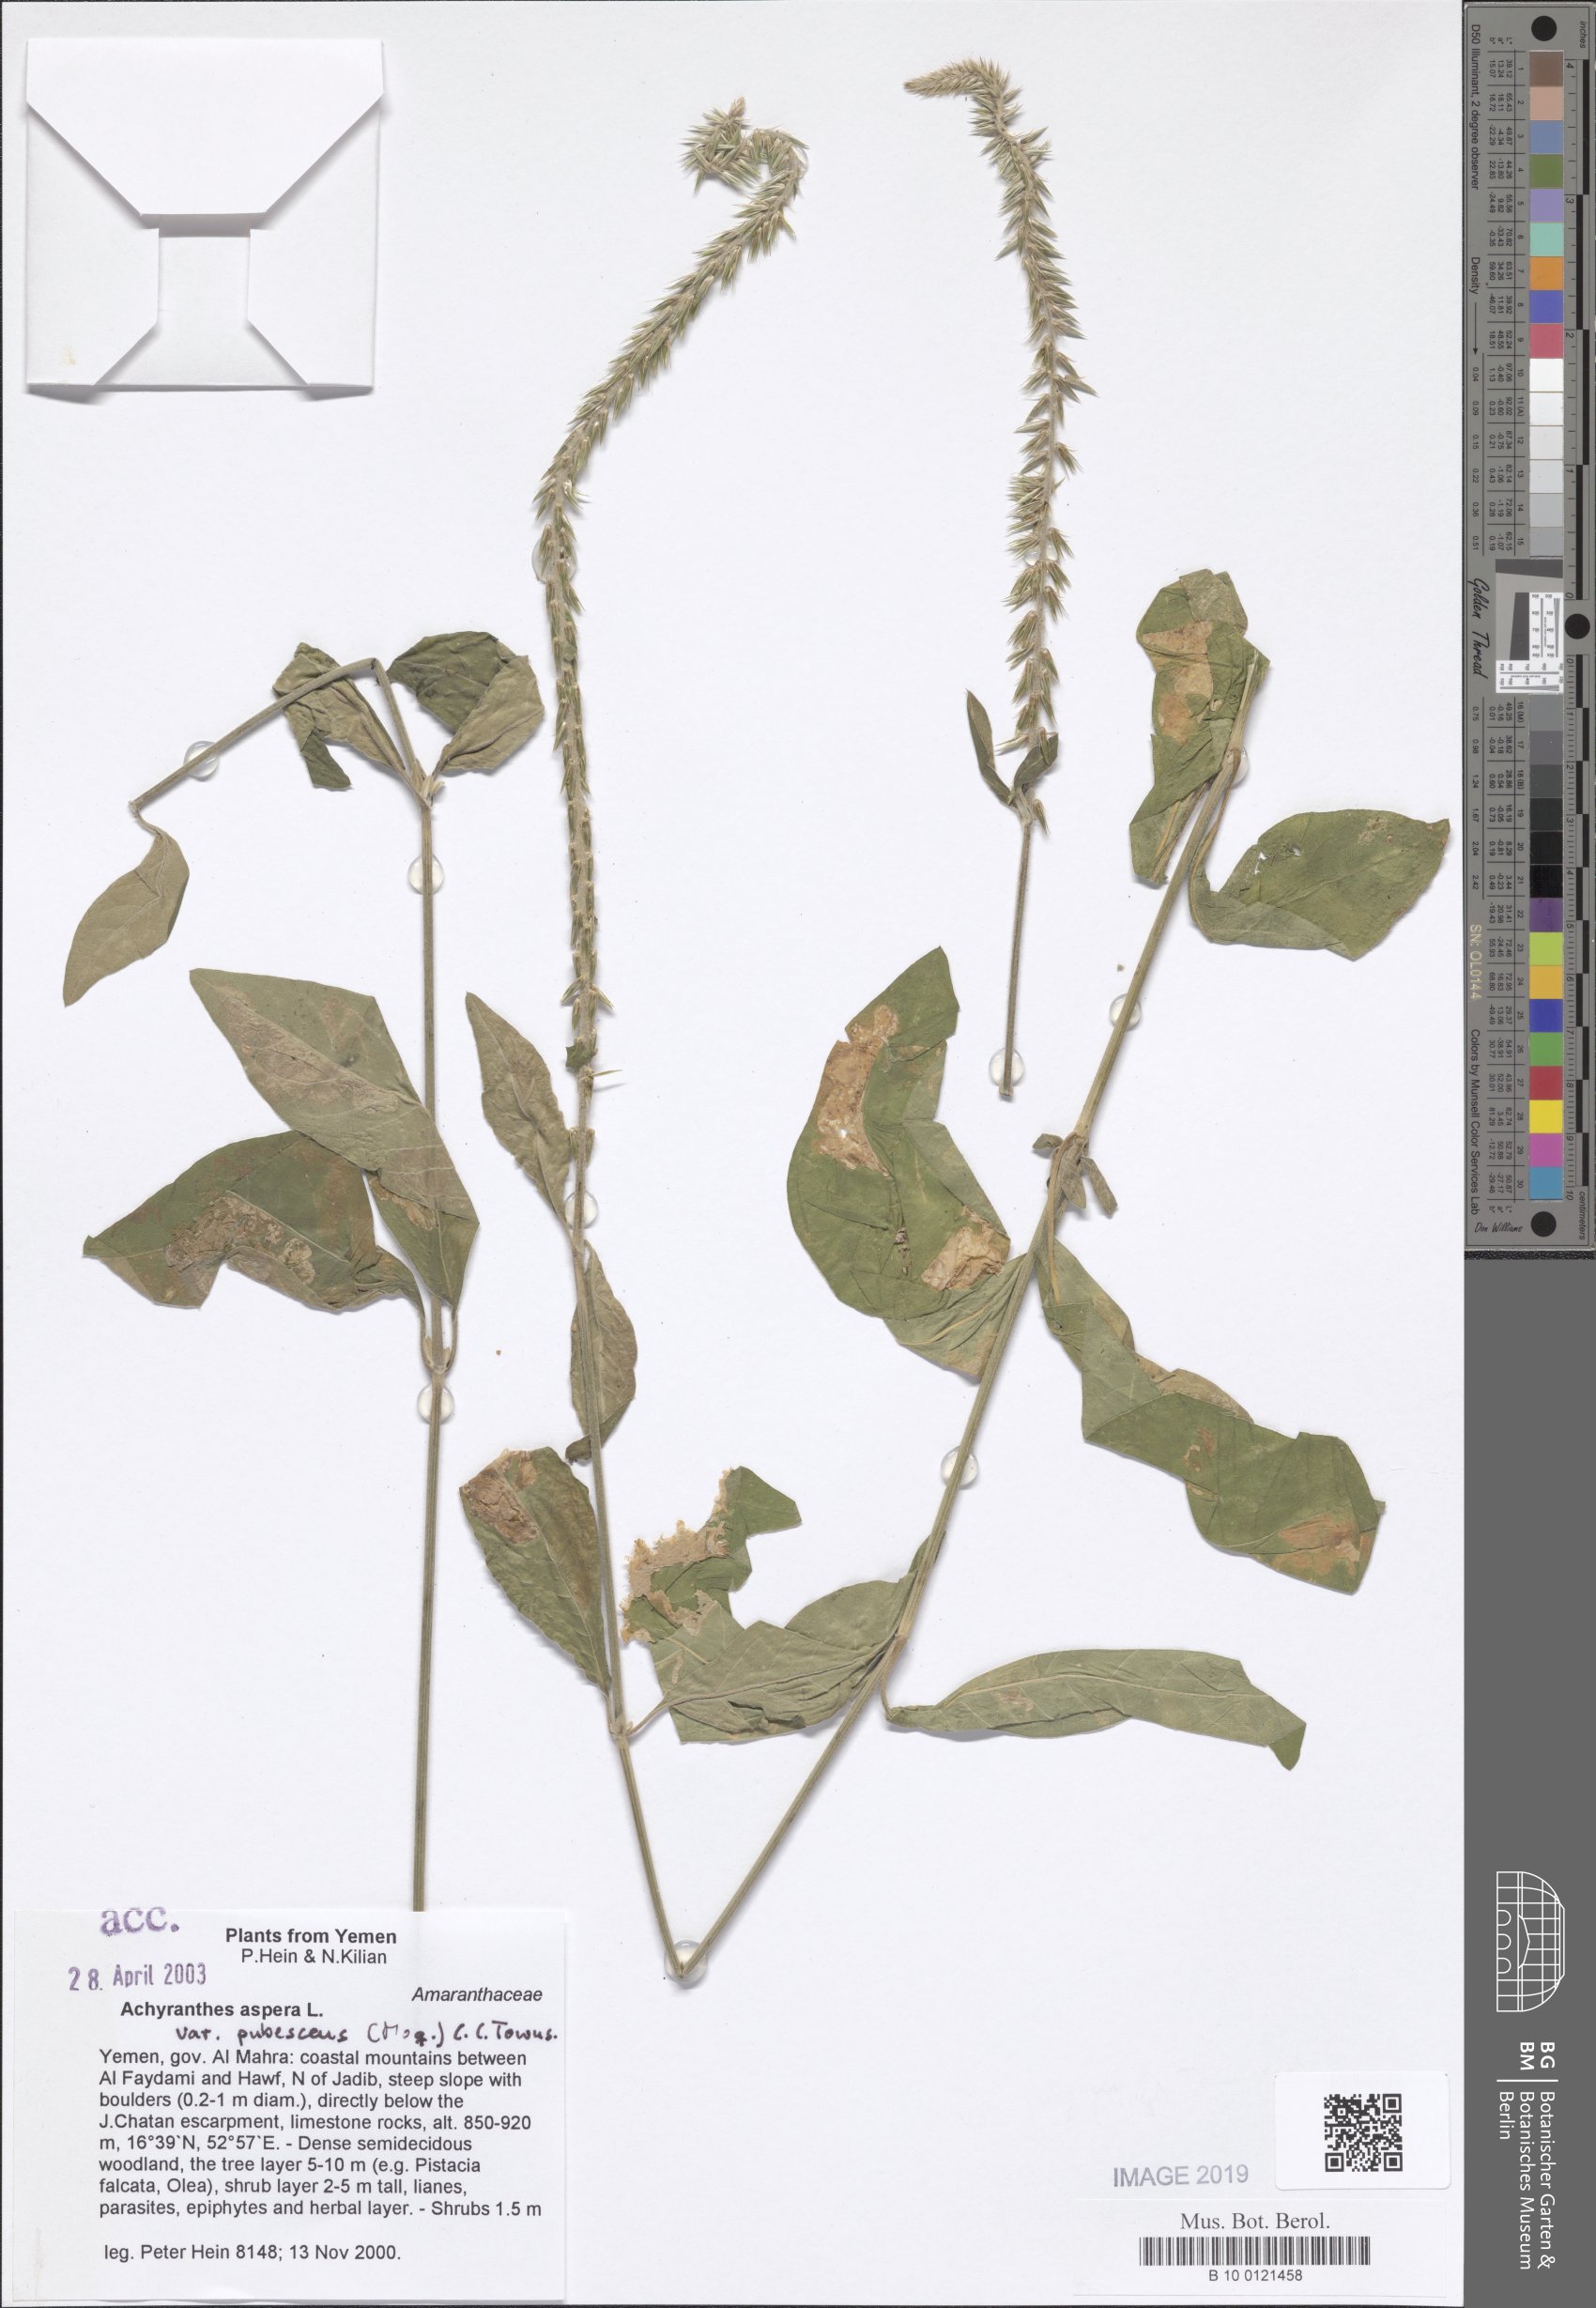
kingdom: Plantae
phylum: Tracheophyta
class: Magnoliopsida
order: Caryophyllales
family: Amaranthaceae
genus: Achyranthes
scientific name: Achyranthes aspera
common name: Devil's horsewhip
